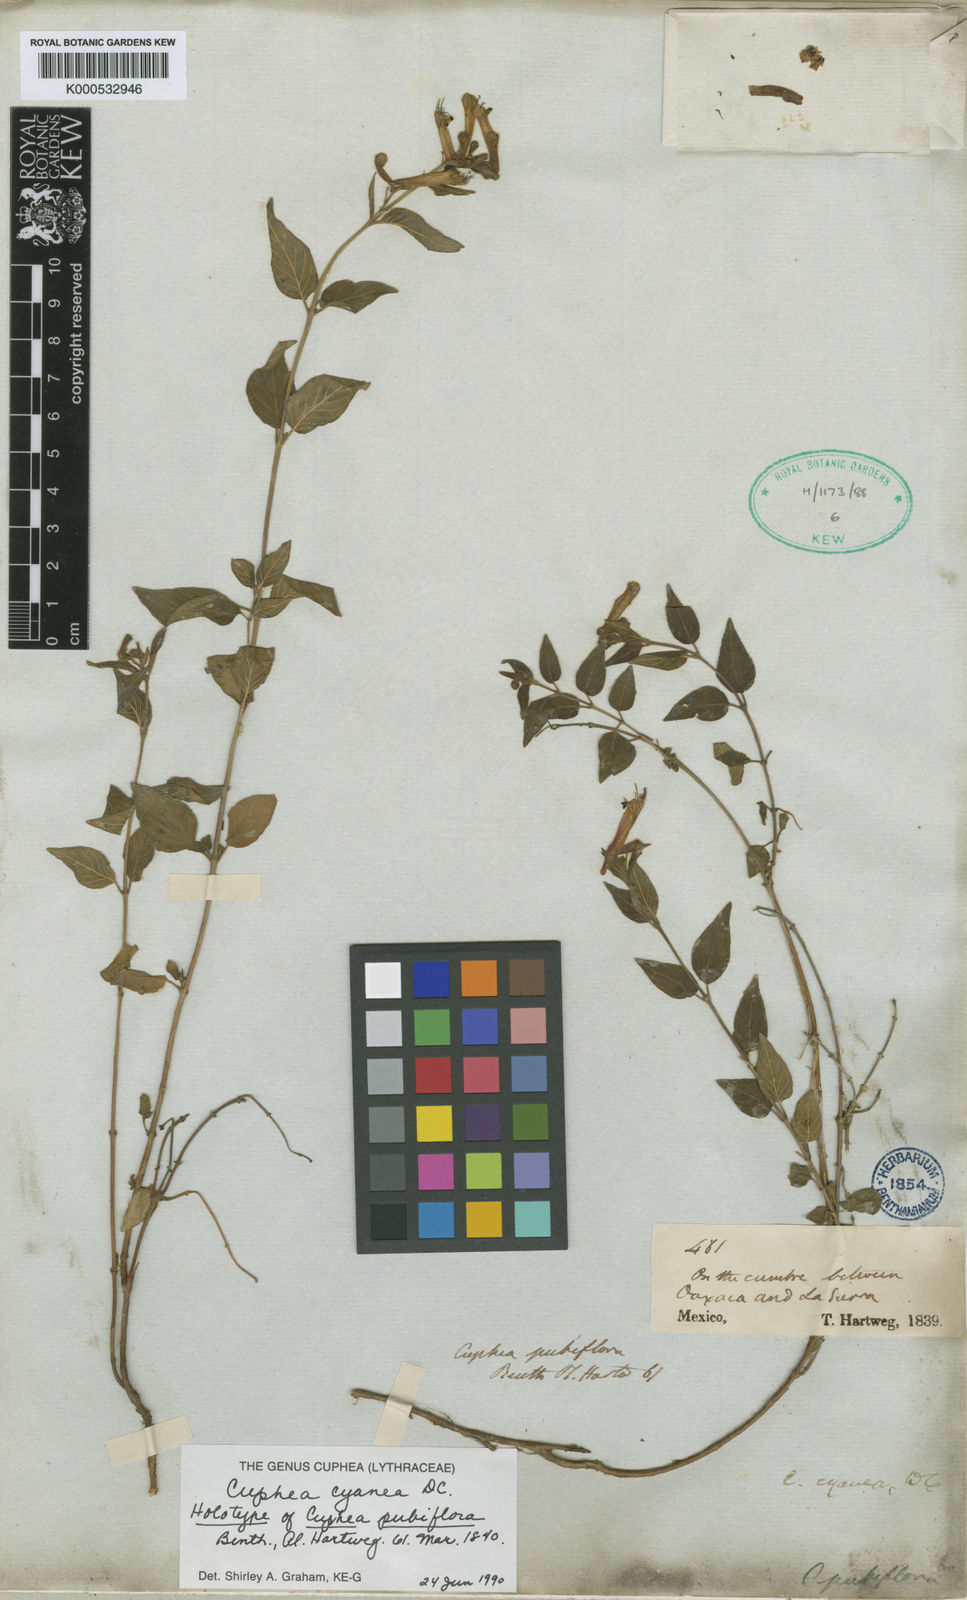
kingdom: Plantae
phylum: Tracheophyta
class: Magnoliopsida
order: Myrtales
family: Lythraceae
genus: Cuphea
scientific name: Cuphea cyanea
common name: Black-eyed cuphea
